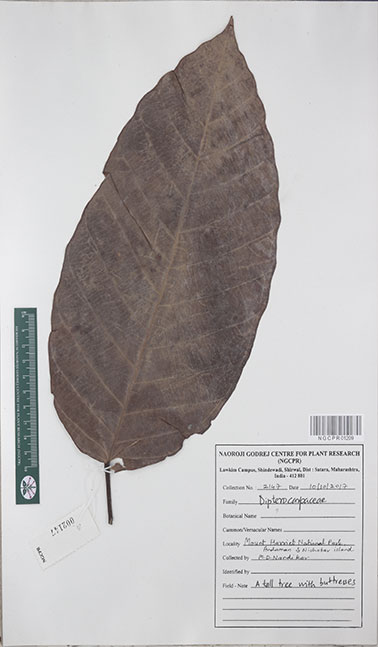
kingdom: Plantae
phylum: Tracheophyta
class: Magnoliopsida
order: Malvales
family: Dipterocarpaceae
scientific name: Dipterocarpaceae
